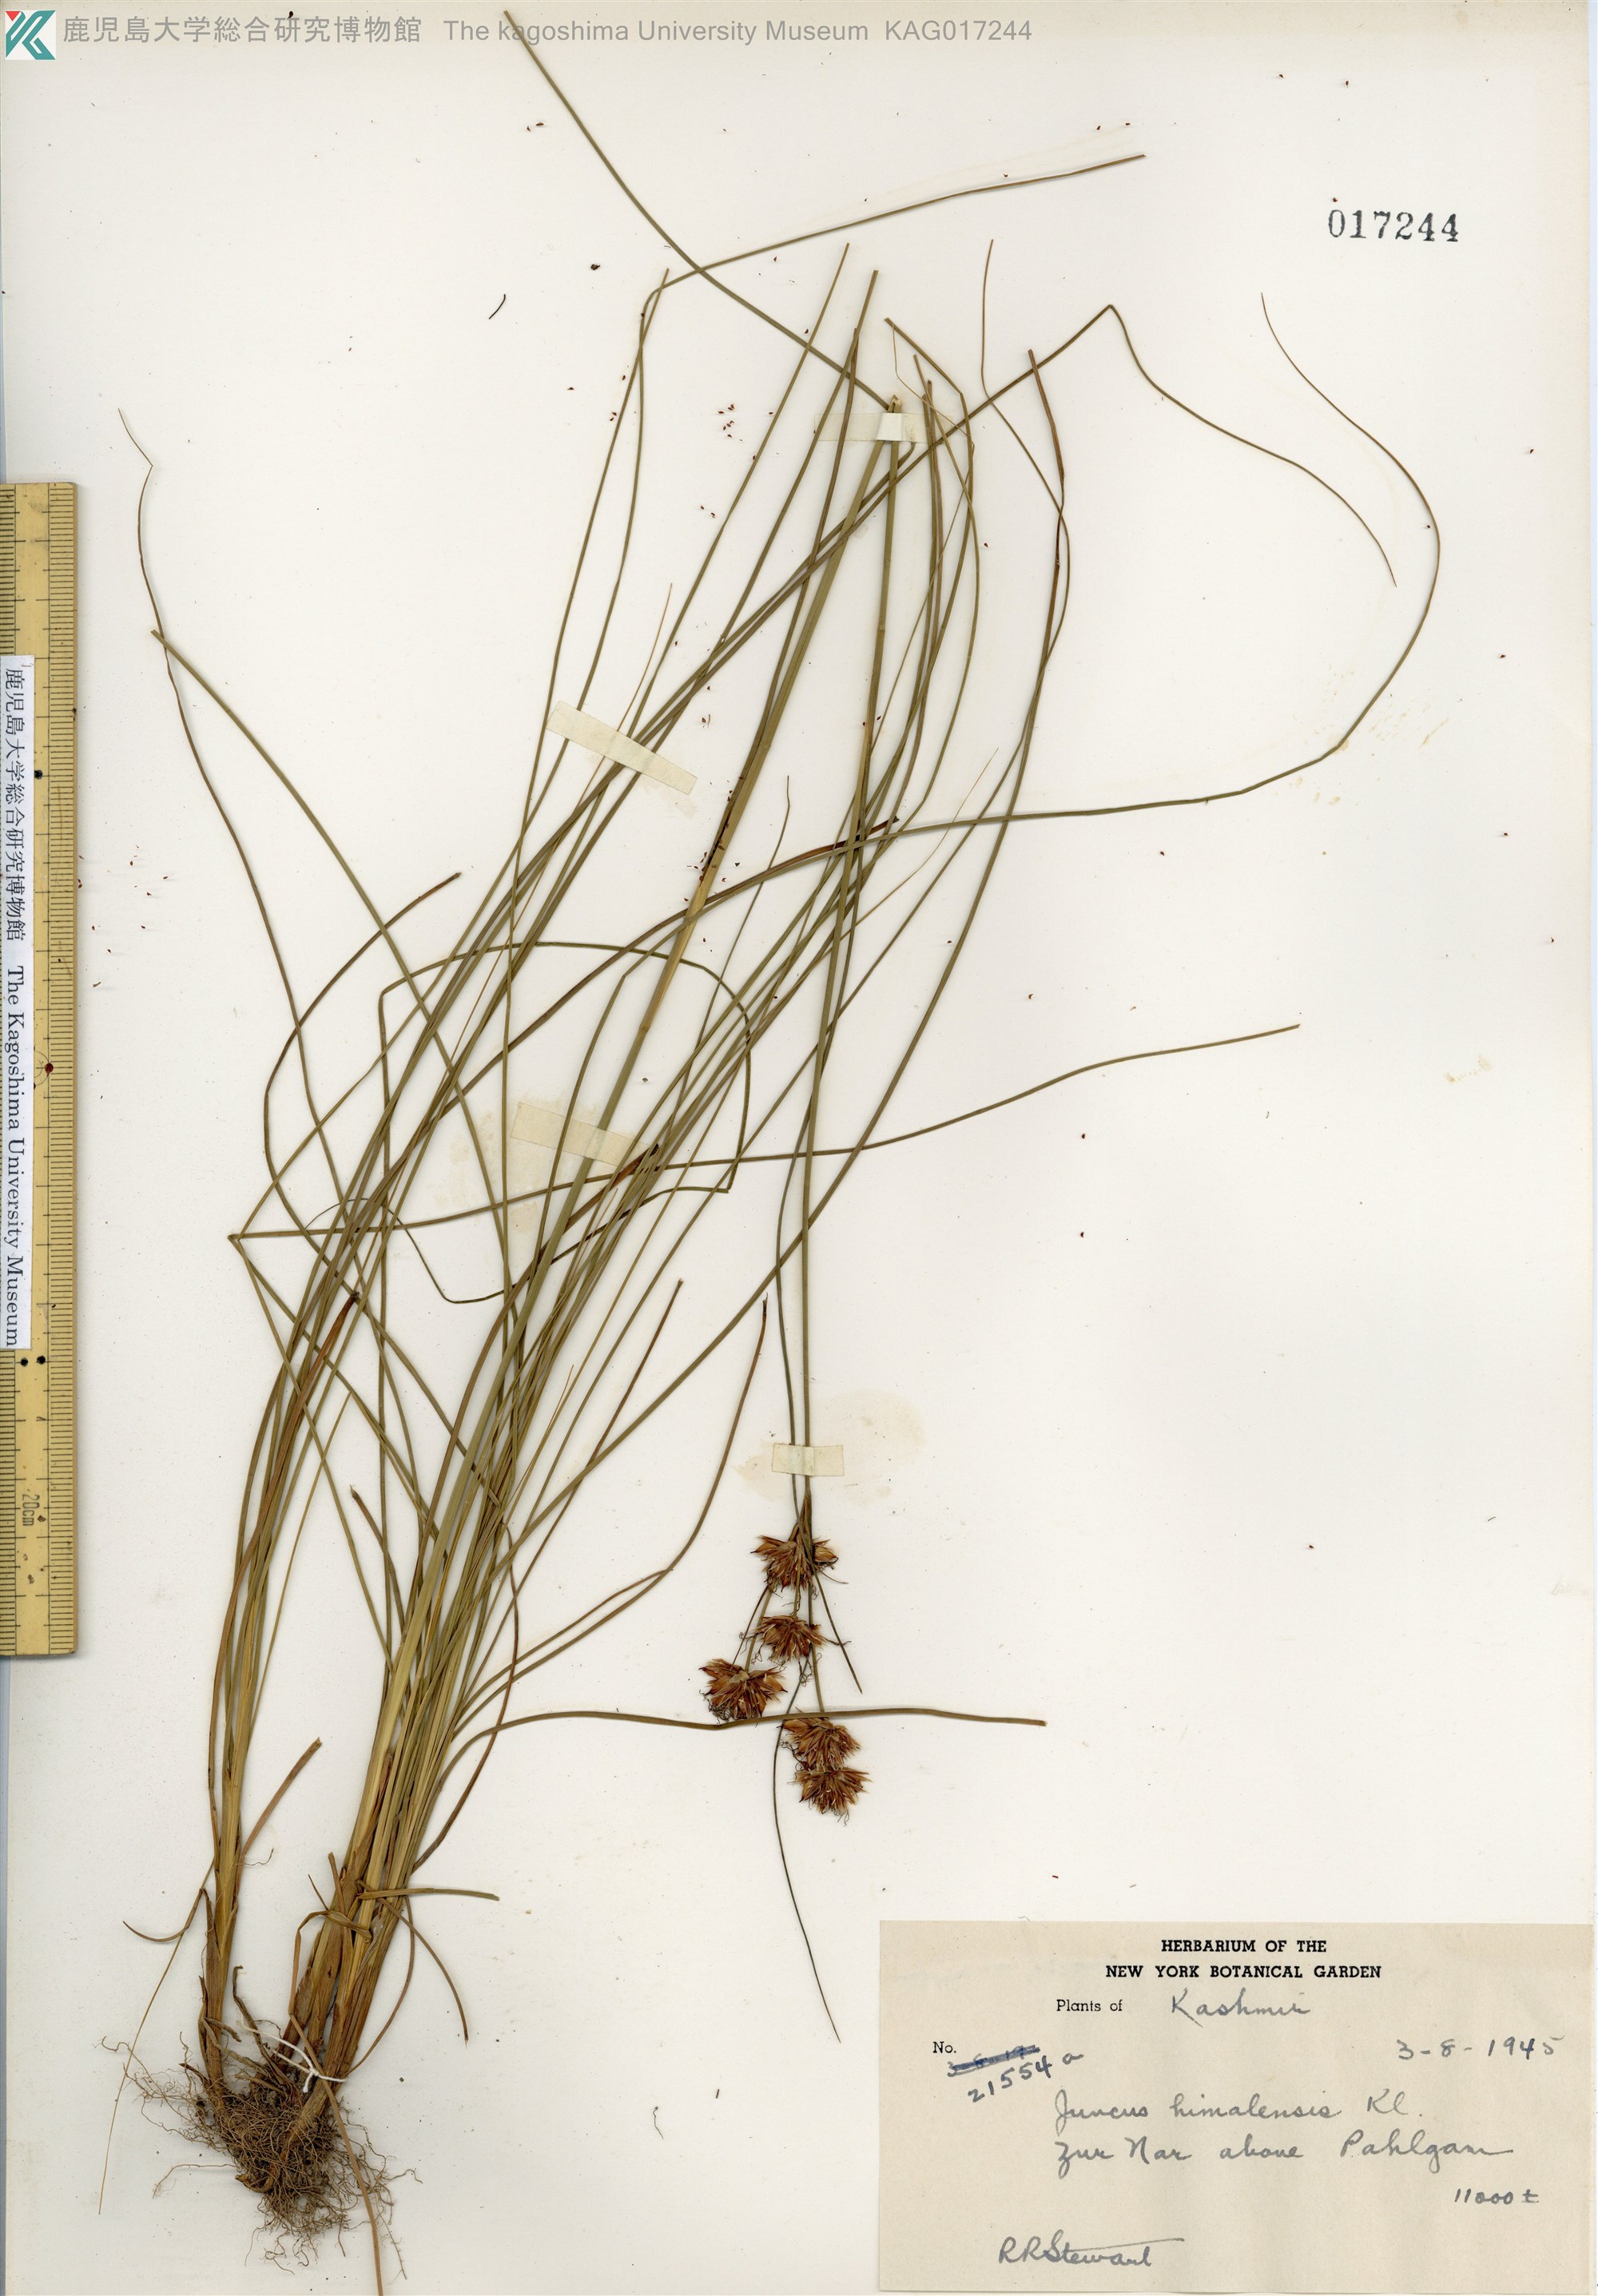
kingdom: Plantae
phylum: Tracheophyta
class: Liliopsida
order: Poales
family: Juncaceae
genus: Juncus
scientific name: Juncus himalensis
